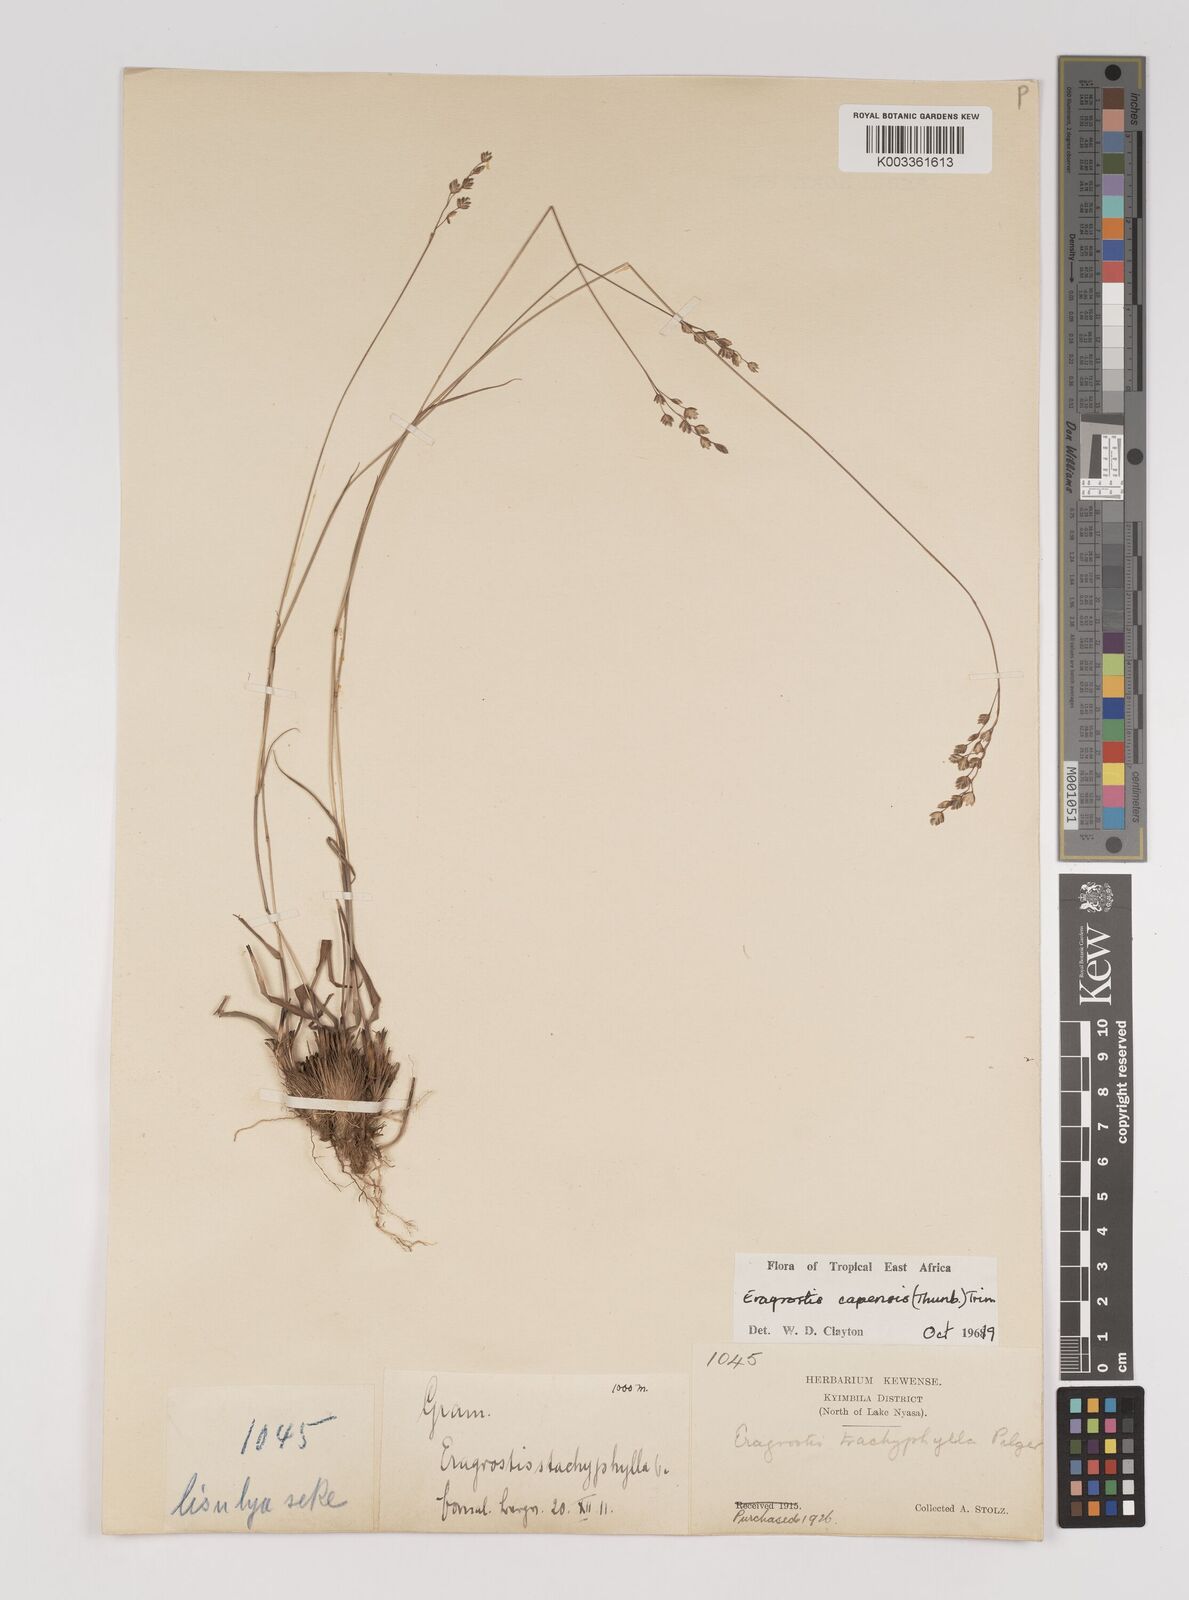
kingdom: Plantae
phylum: Tracheophyta
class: Liliopsida
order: Poales
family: Poaceae
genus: Eragrostis
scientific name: Eragrostis capensis
